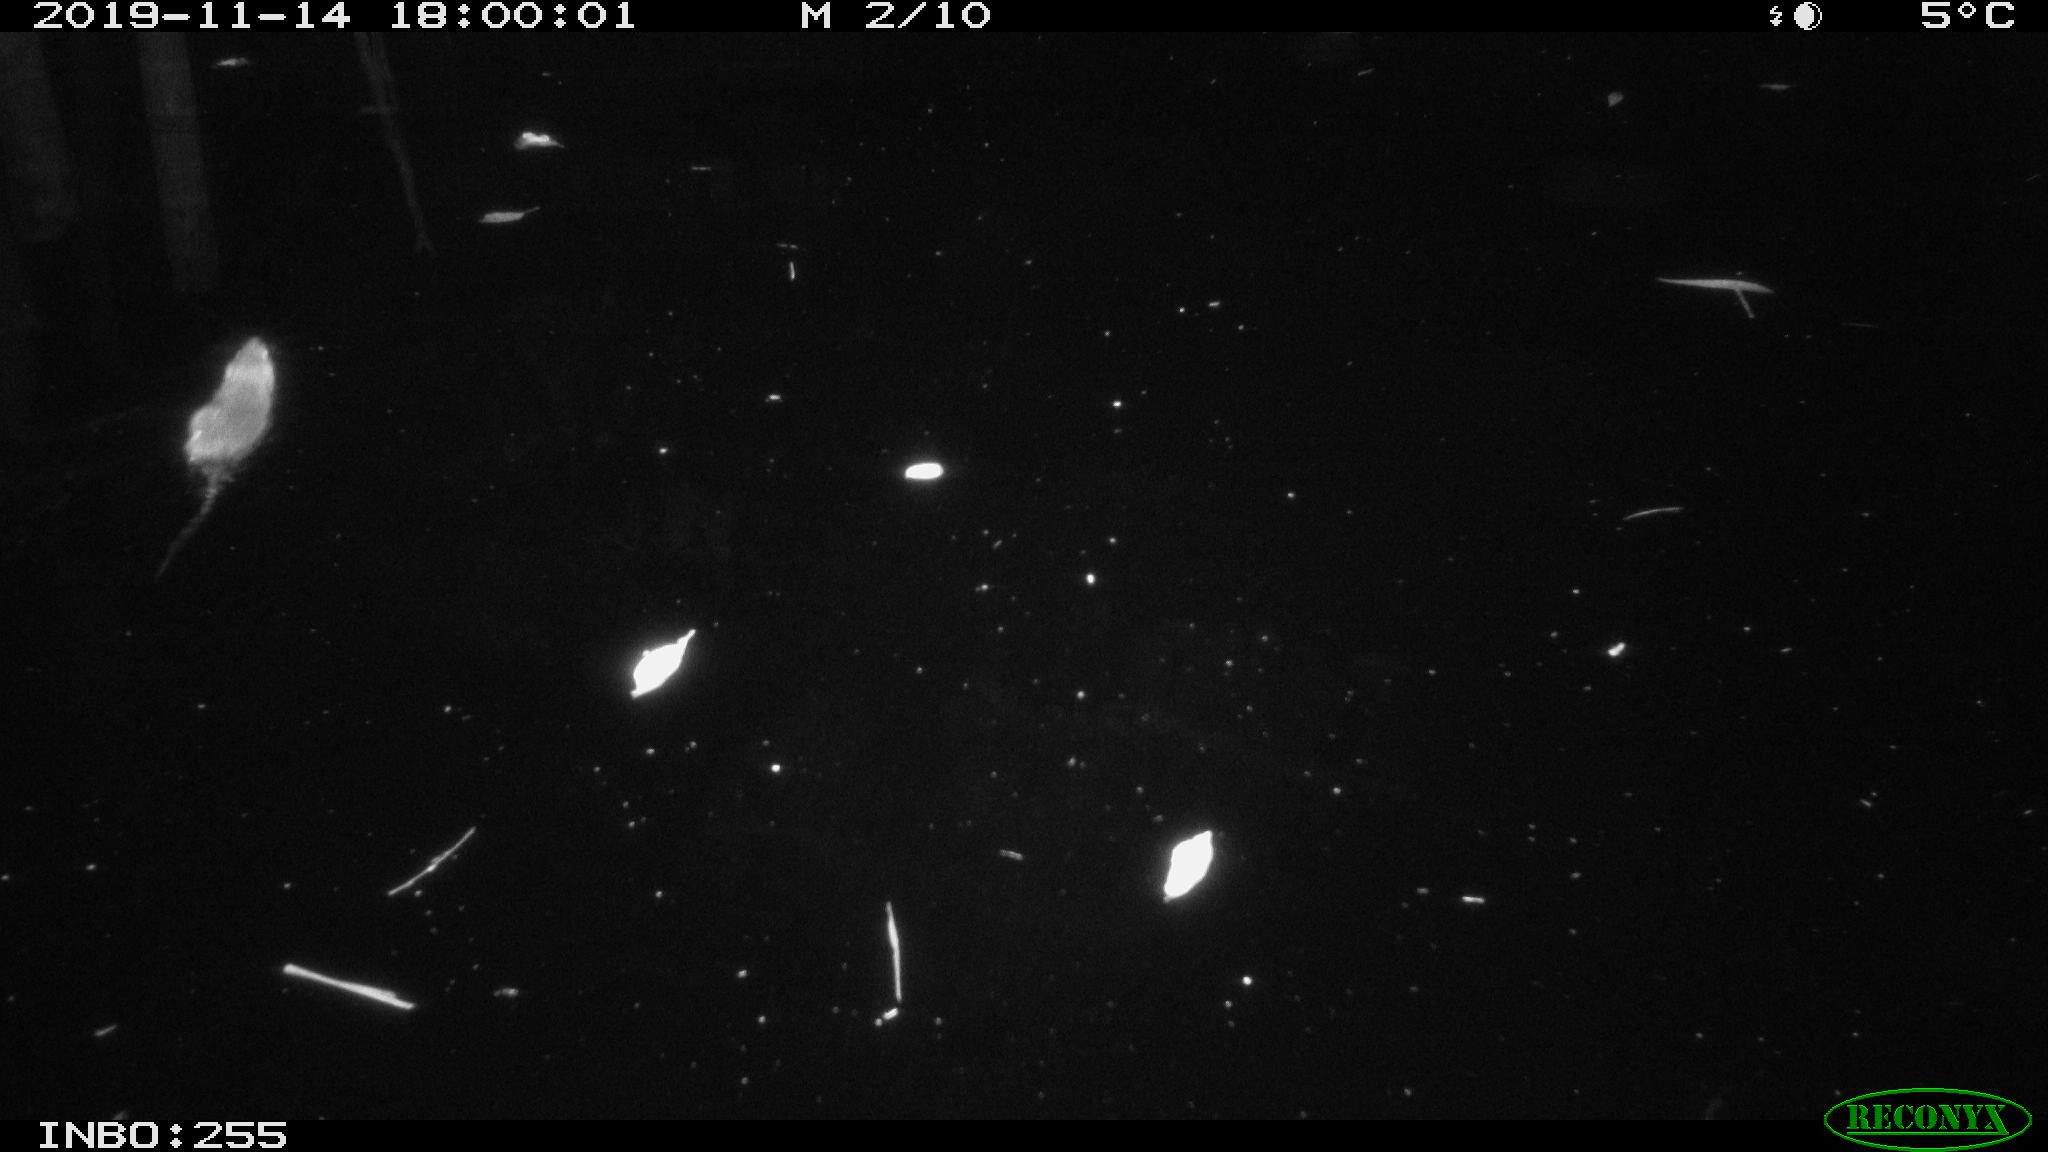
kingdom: Animalia
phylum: Chordata
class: Mammalia
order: Rodentia
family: Muridae
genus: Rattus
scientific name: Rattus norvegicus
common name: Brown rat
